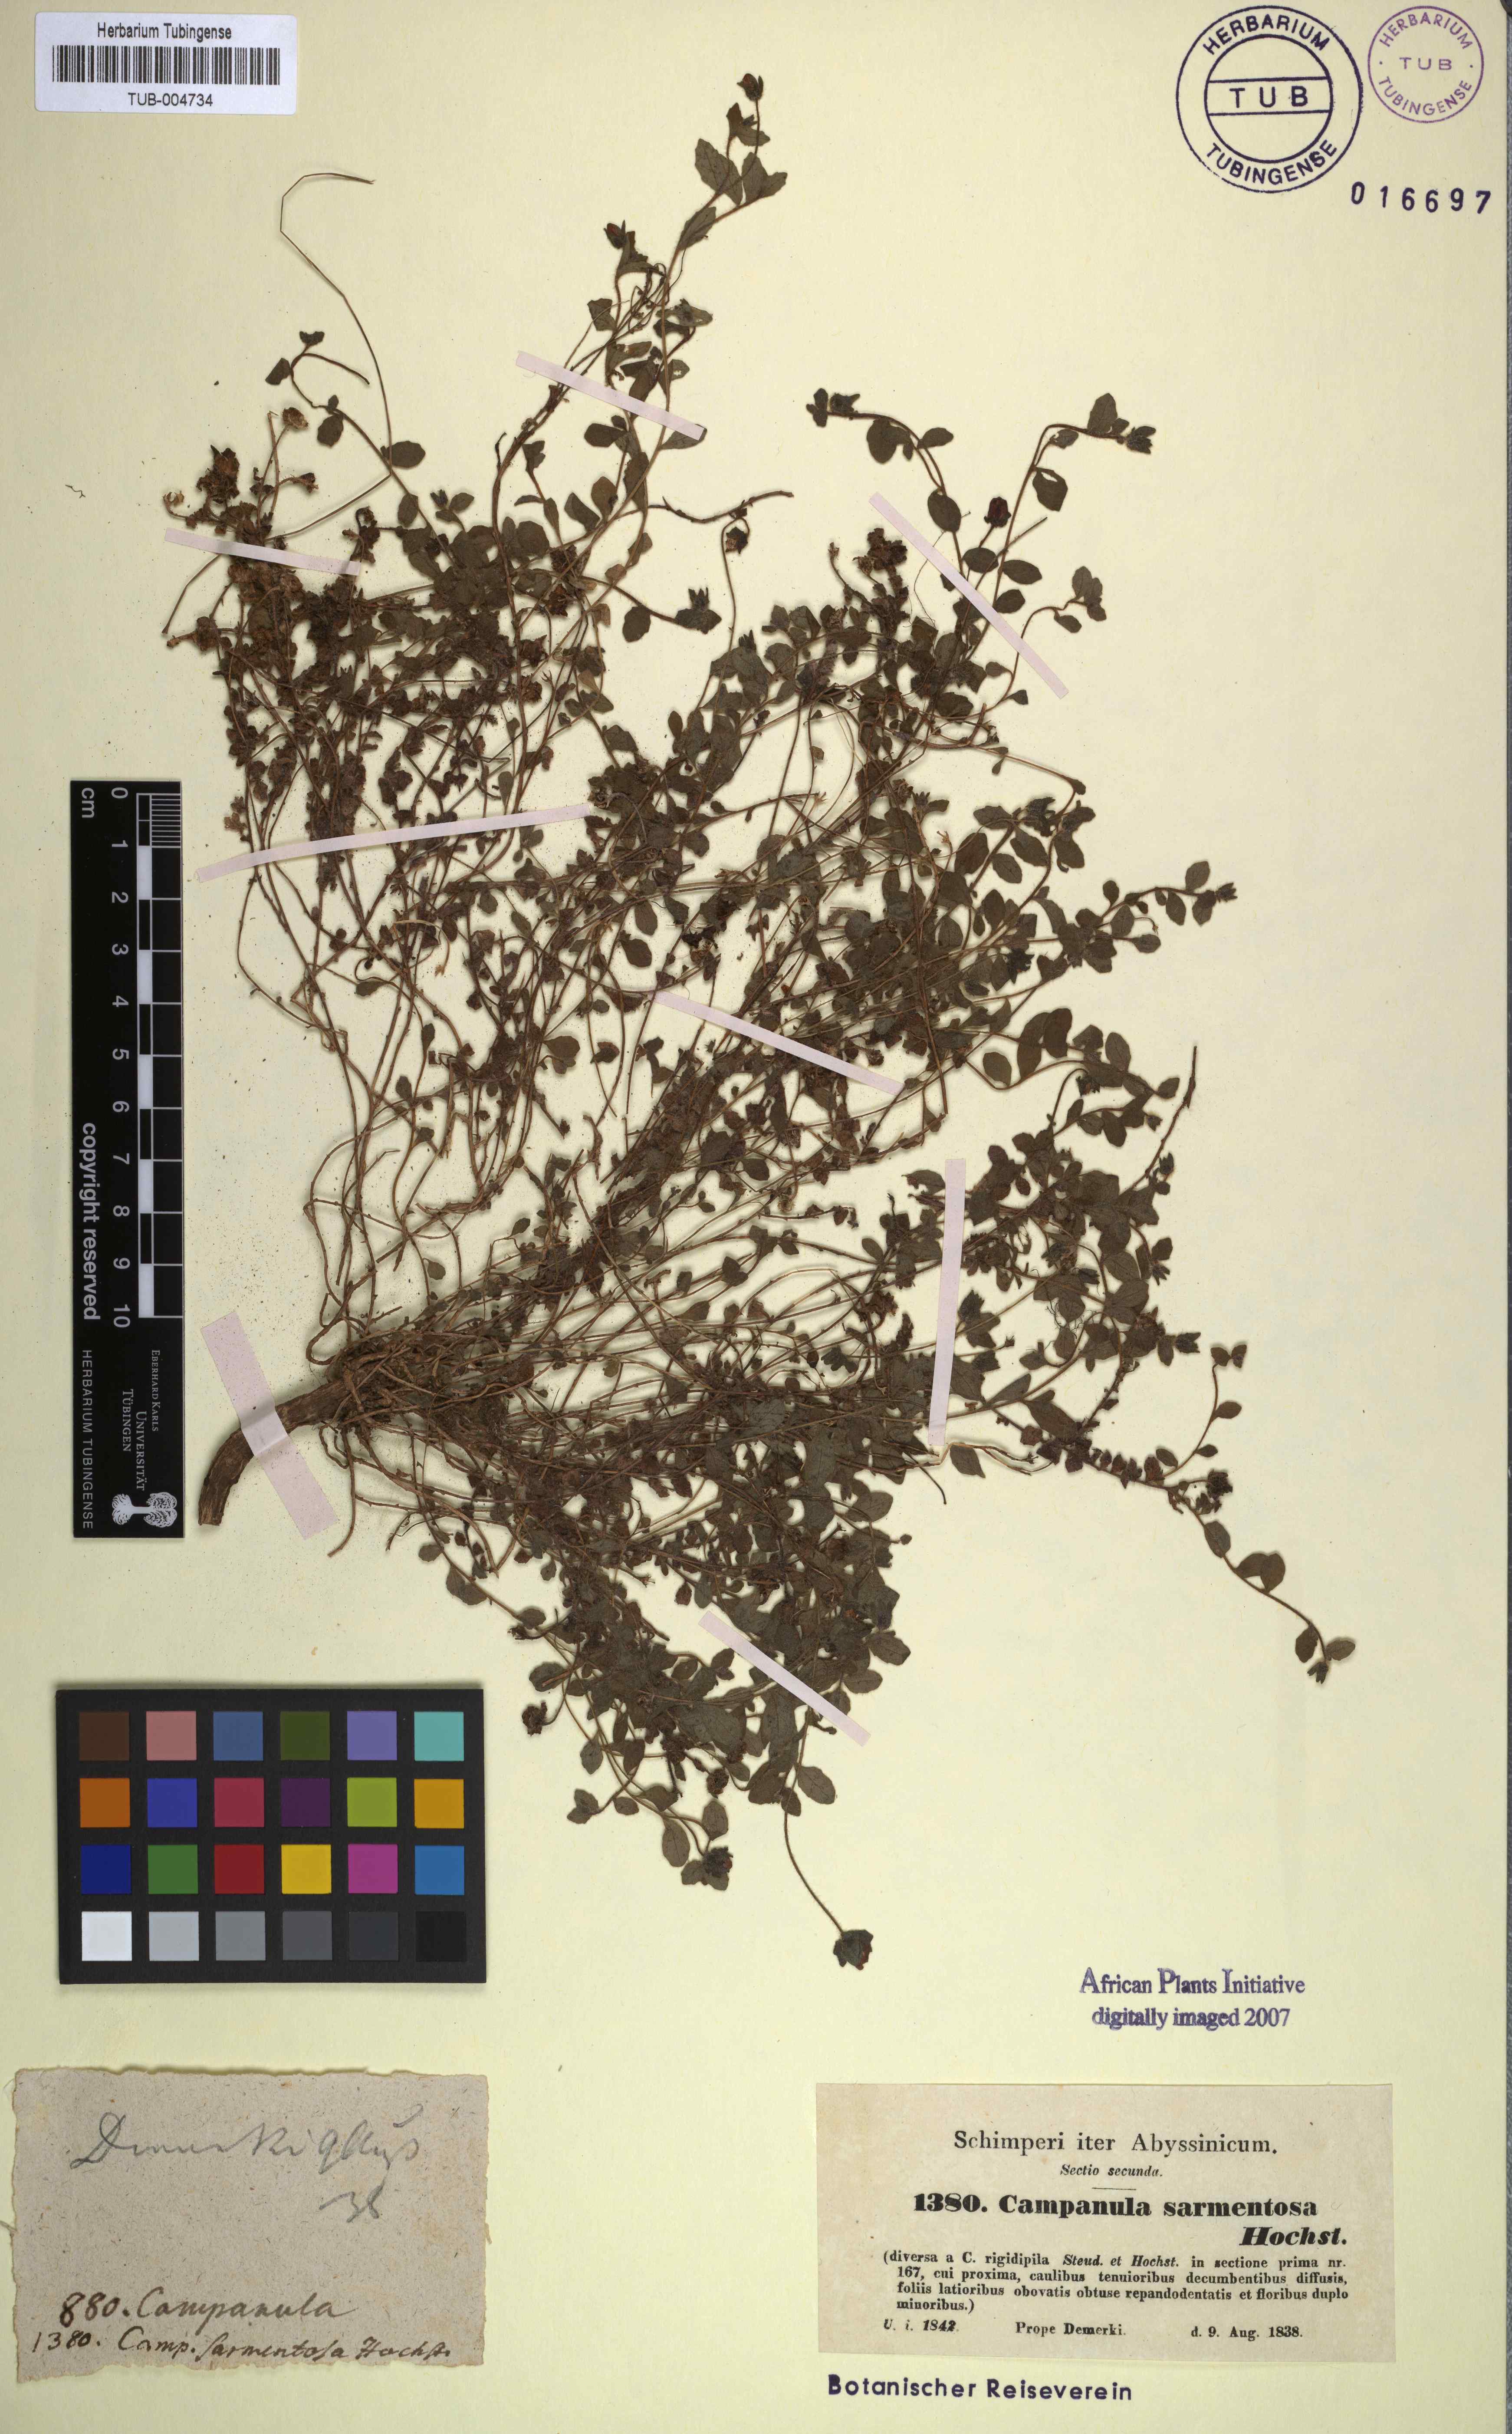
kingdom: Plantae
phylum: Tracheophyta
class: Magnoliopsida
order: Asterales
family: Campanulaceae
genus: Campanula
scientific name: Campanula edulis
